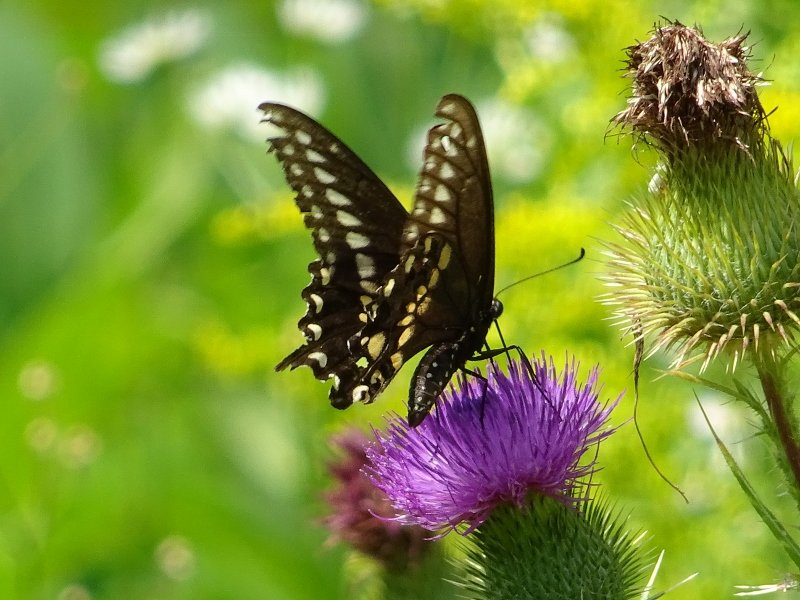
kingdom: Animalia
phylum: Arthropoda
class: Insecta
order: Lepidoptera
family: Papilionidae
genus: Papilio
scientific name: Papilio polyxenes
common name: Black Swallowtail
